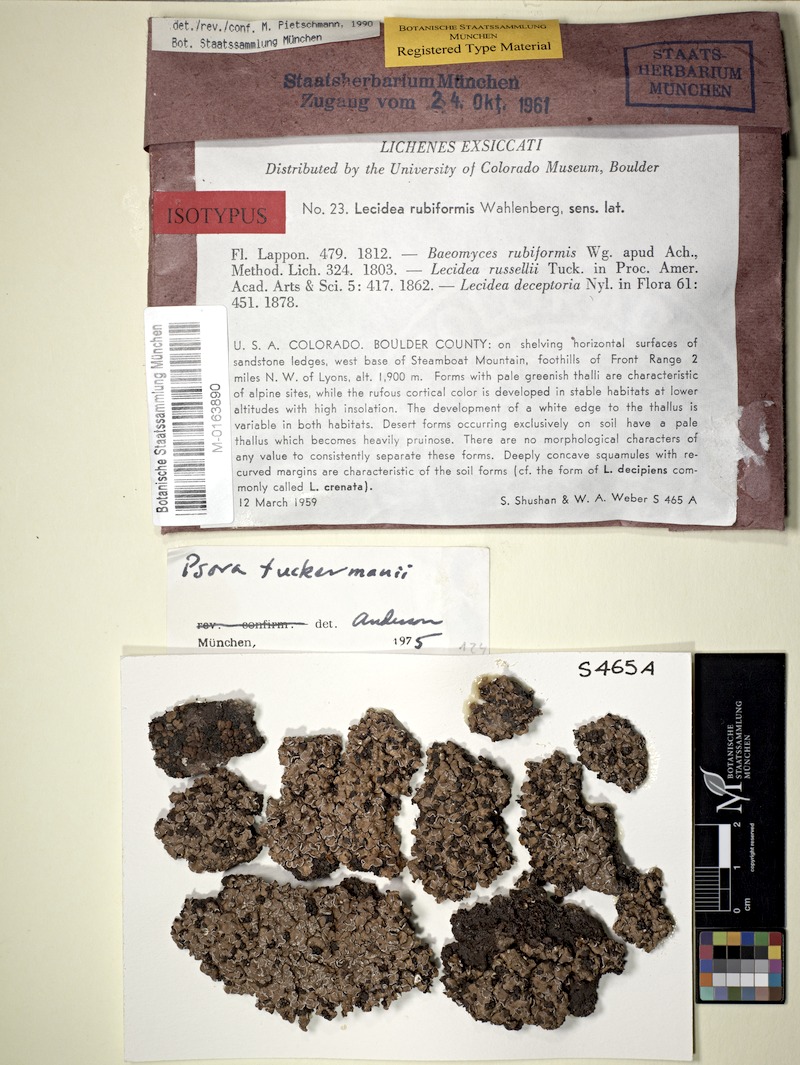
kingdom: Fungi
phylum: Ascomycota
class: Lecanoromycetes
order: Lecanorales
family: Psoraceae
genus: Psora
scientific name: Psora tuckermanii
